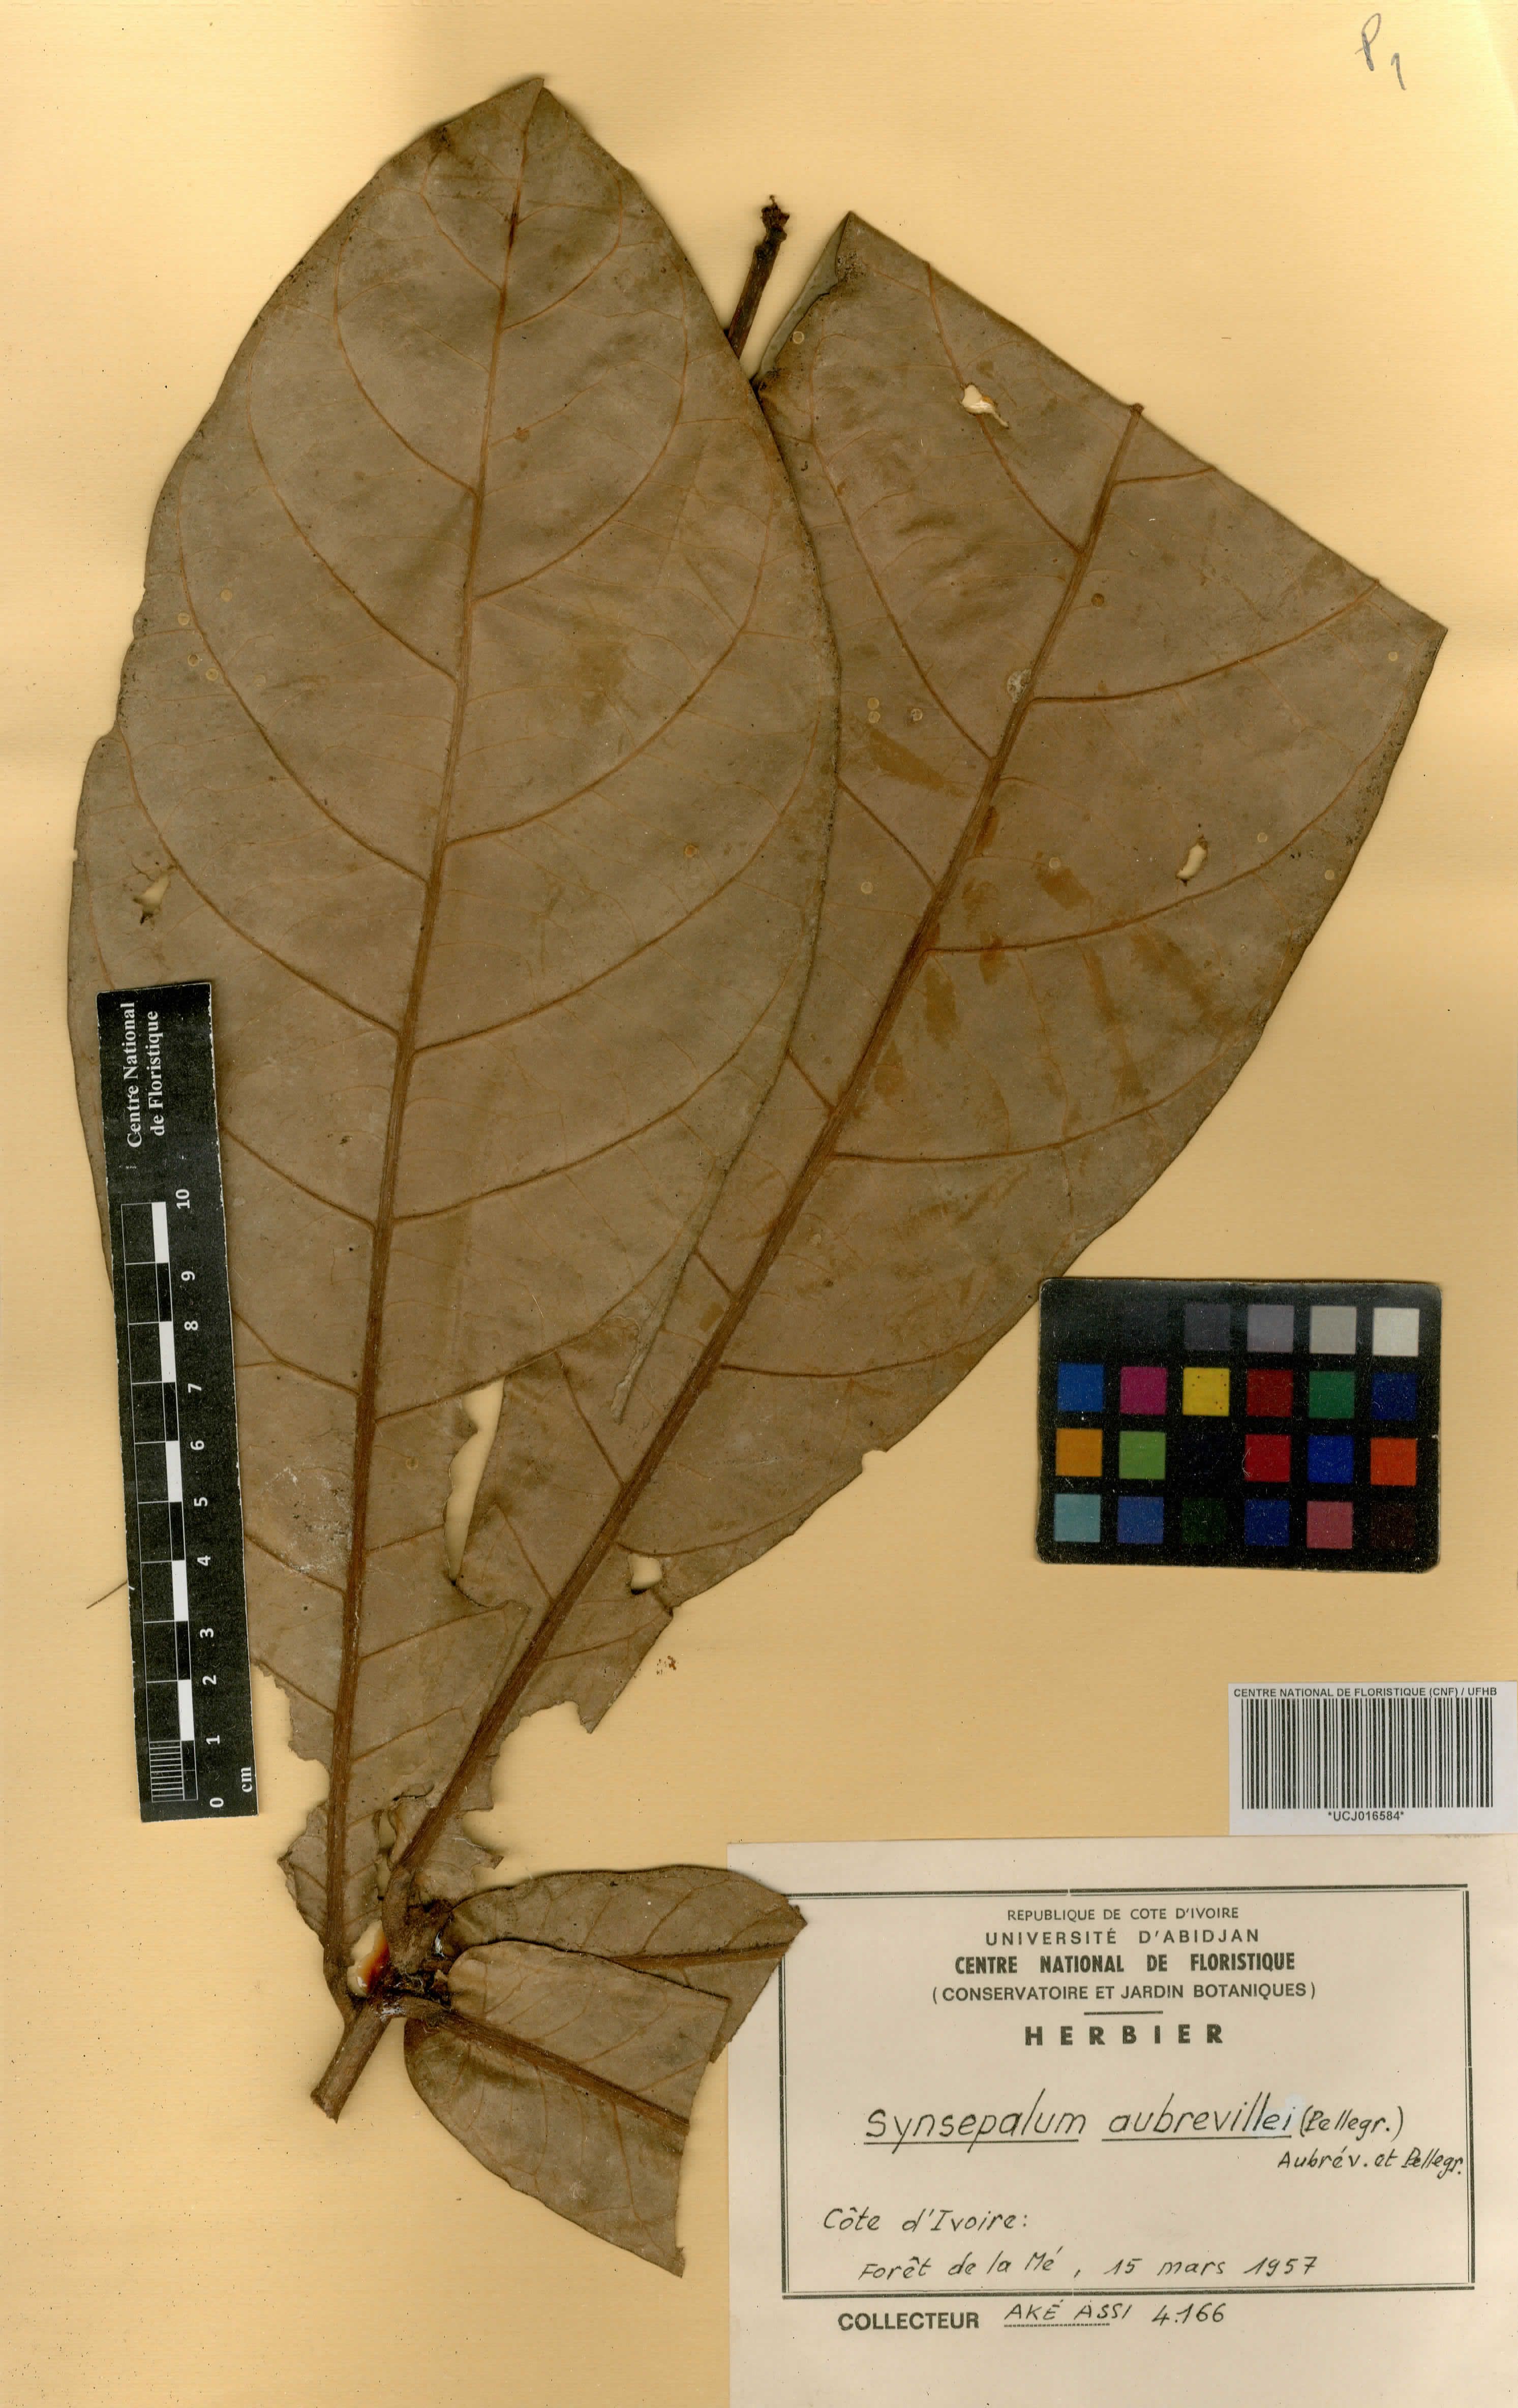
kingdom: Plantae
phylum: Tracheophyta
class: Magnoliopsida
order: Ericales
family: Sapotaceae
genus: Synsepalum
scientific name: Synsepalum aubrevillei
